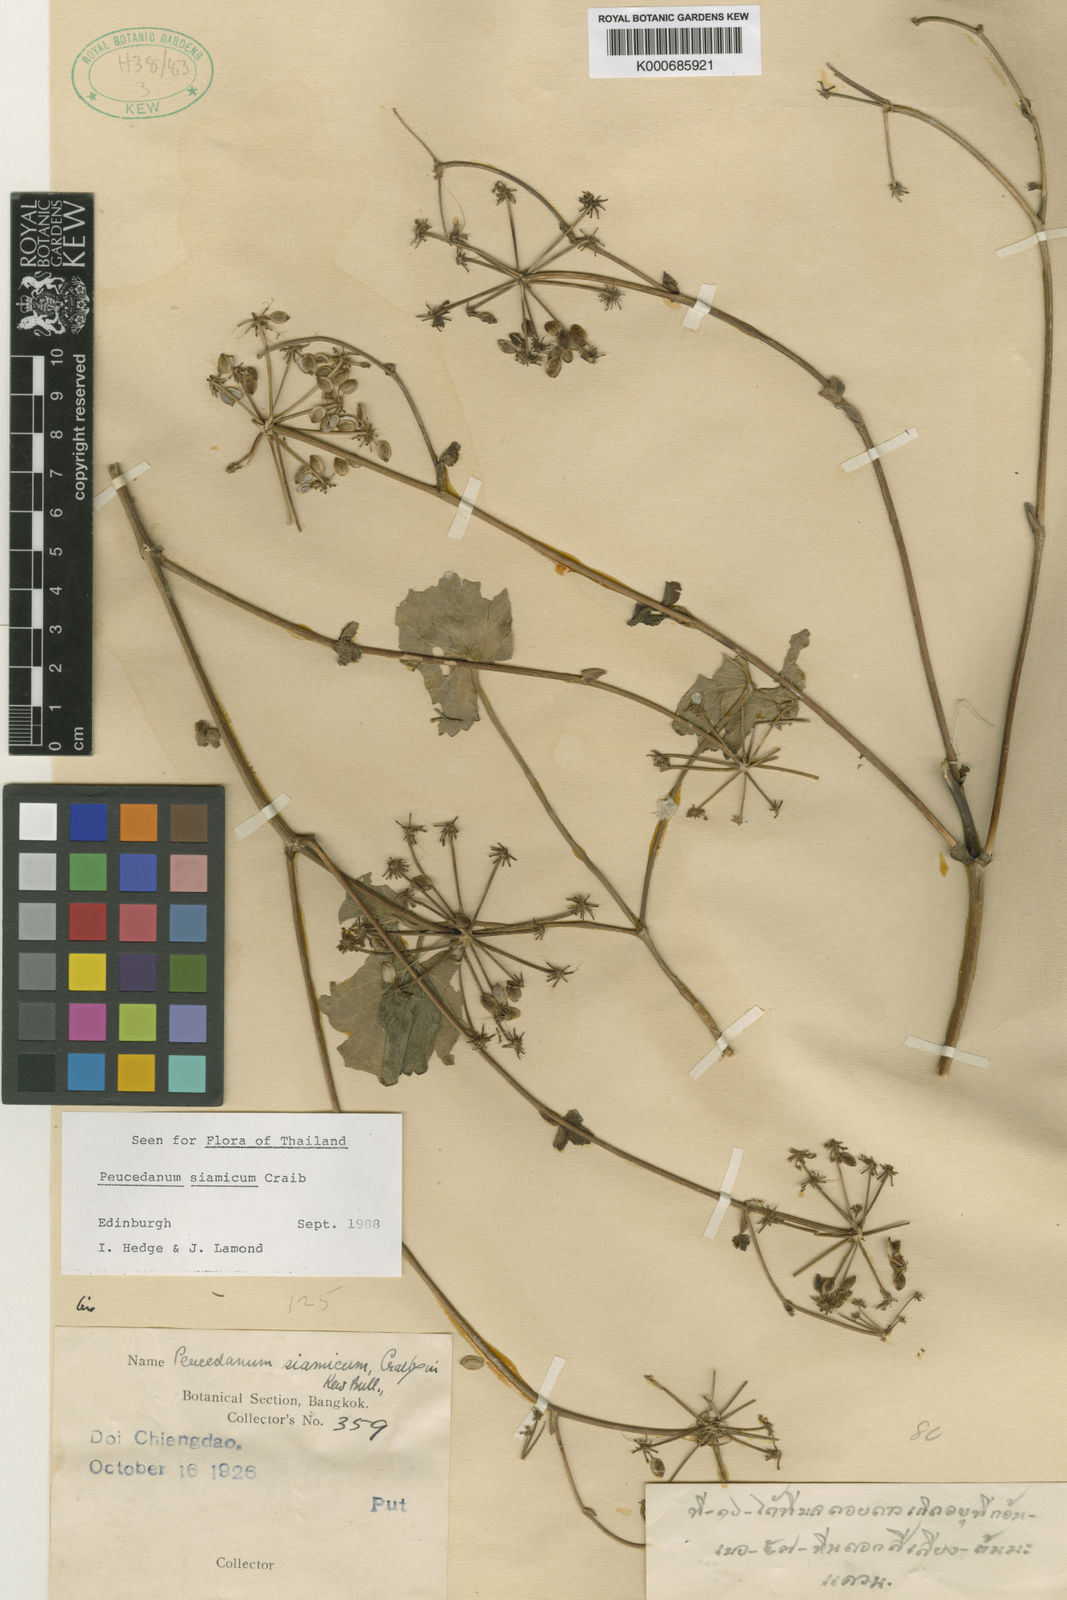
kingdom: Plantae
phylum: Tracheophyta
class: Magnoliopsida
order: Apiales
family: Apiaceae
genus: Peucedanum
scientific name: Peucedanum siamicum
